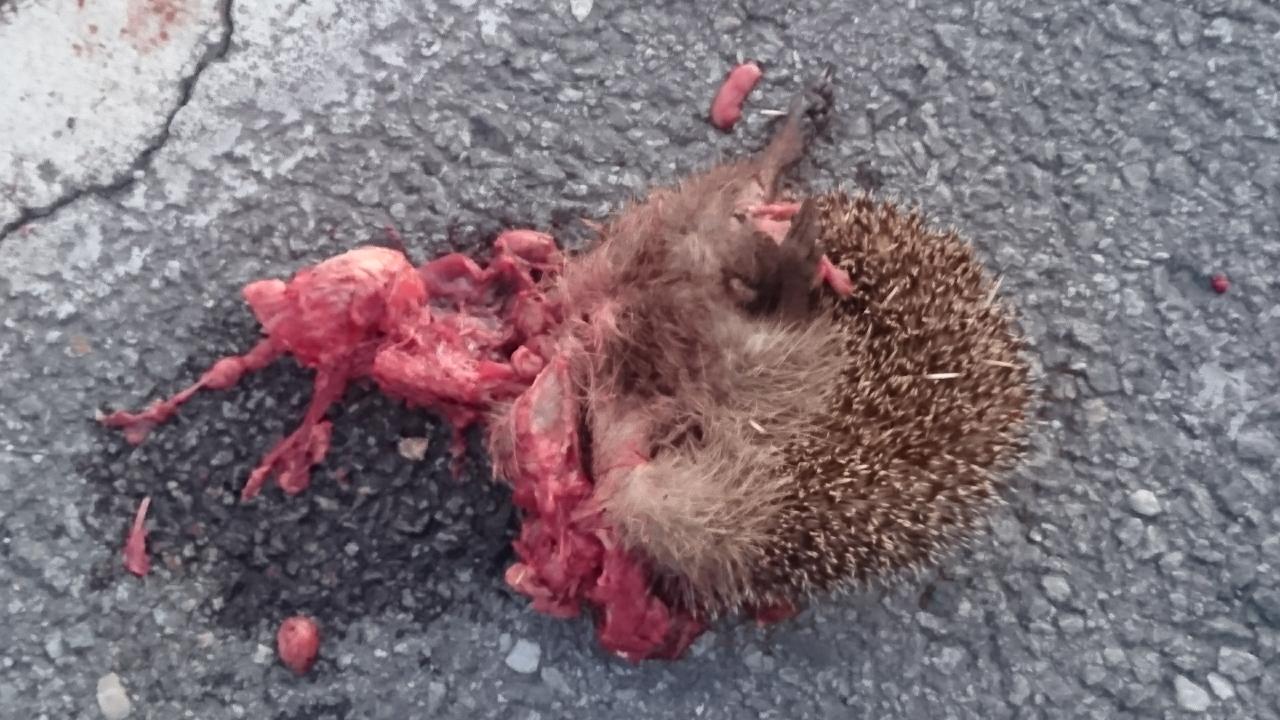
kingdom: Animalia
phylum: Chordata
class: Mammalia
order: Erinaceomorpha
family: Erinaceidae
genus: Erinaceus
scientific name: Erinaceus
